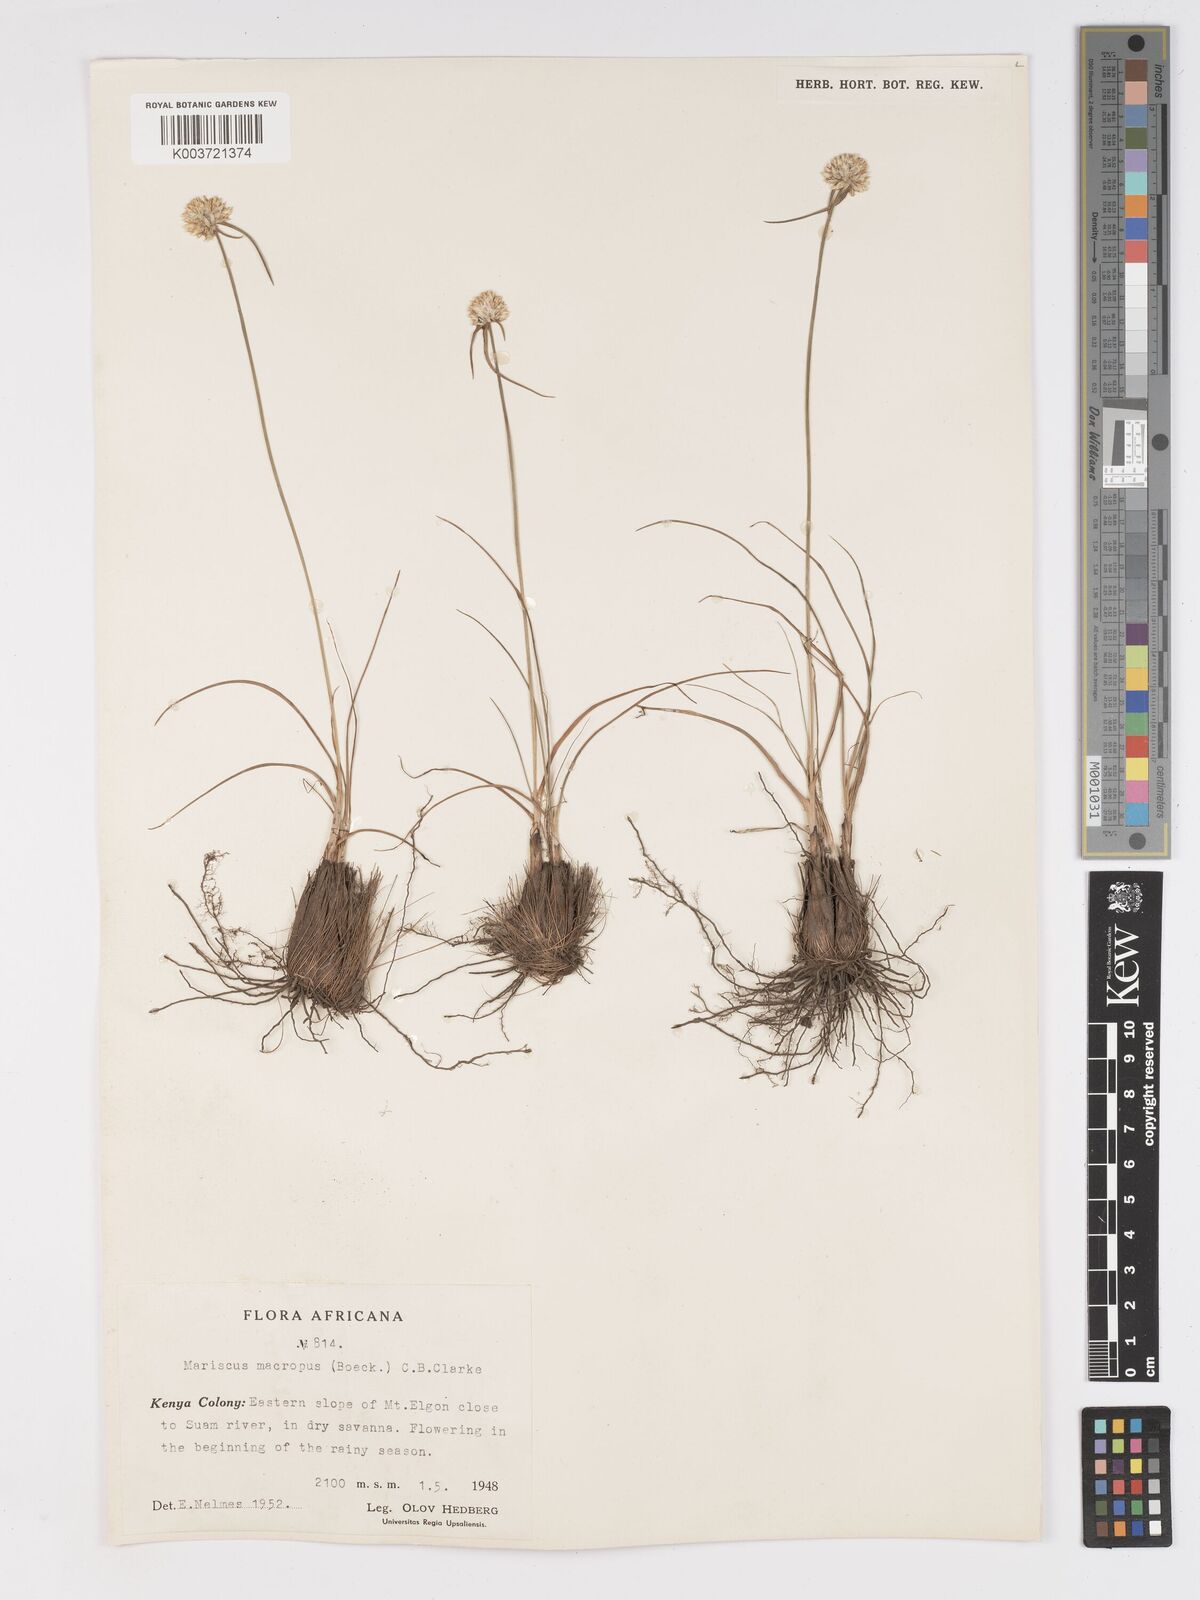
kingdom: Plantae
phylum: Tracheophyta
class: Liliopsida
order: Poales
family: Cyperaceae
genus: Cyperus
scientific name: Cyperus mollipes
